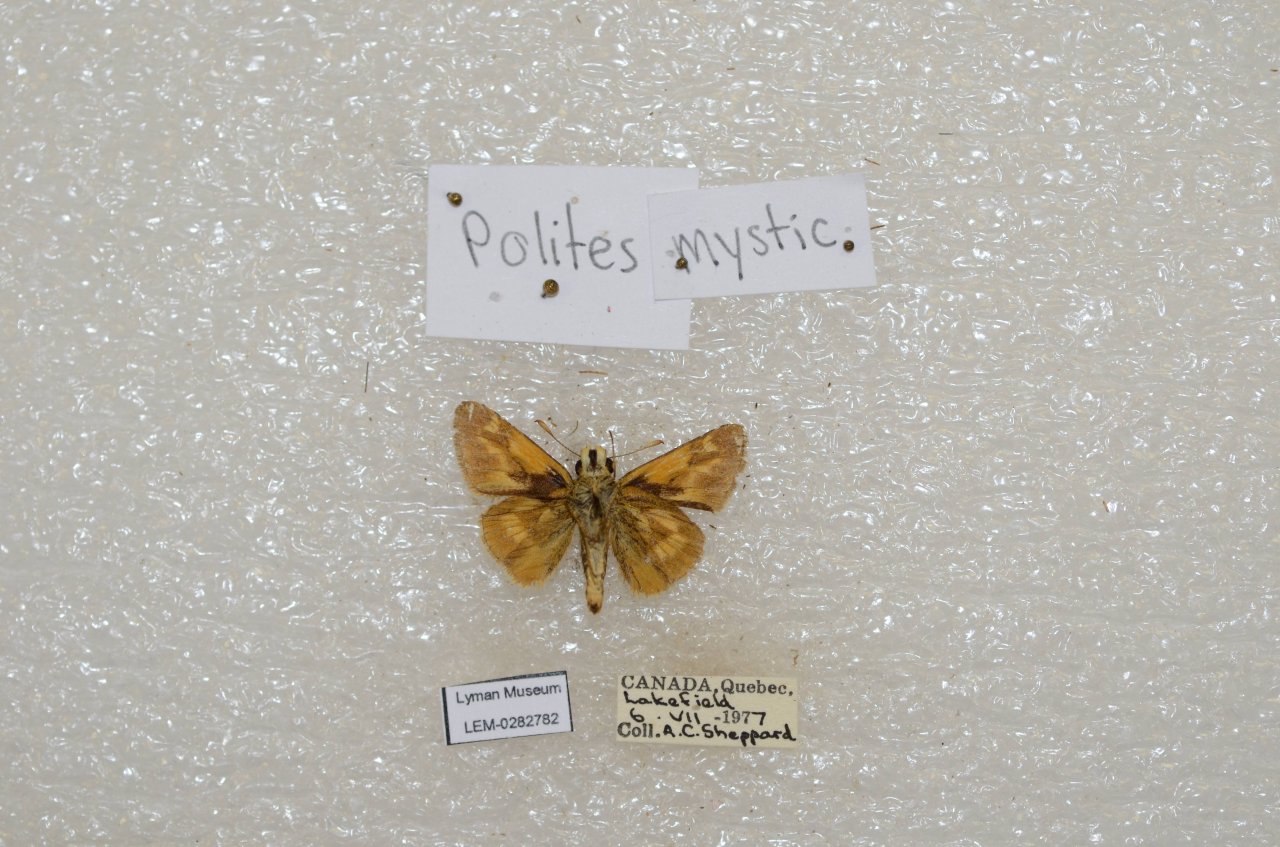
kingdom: Animalia
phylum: Arthropoda
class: Insecta
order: Lepidoptera
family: Hesperiidae
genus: Polites
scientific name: Polites
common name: Long Dash Skipper
